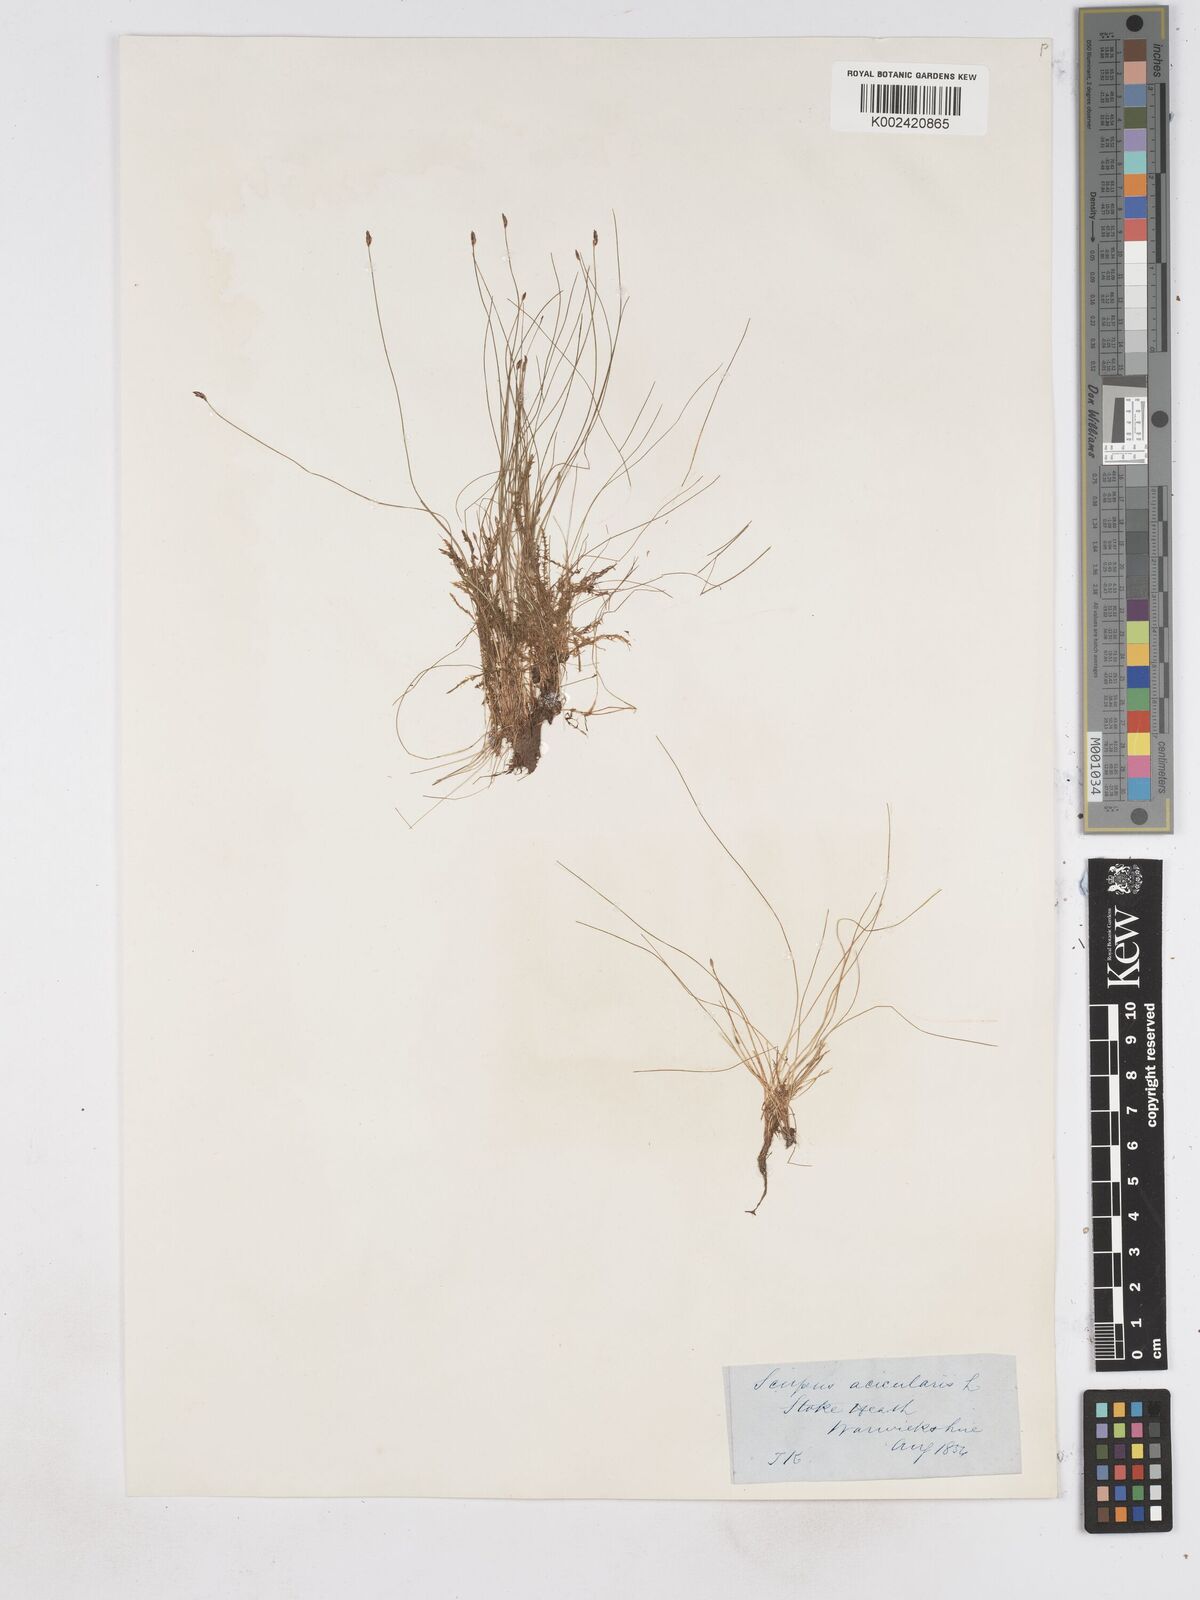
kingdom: Plantae
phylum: Tracheophyta
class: Liliopsida
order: Poales
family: Cyperaceae
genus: Eleocharis
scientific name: Eleocharis acicularis
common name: Needle spike-rush
